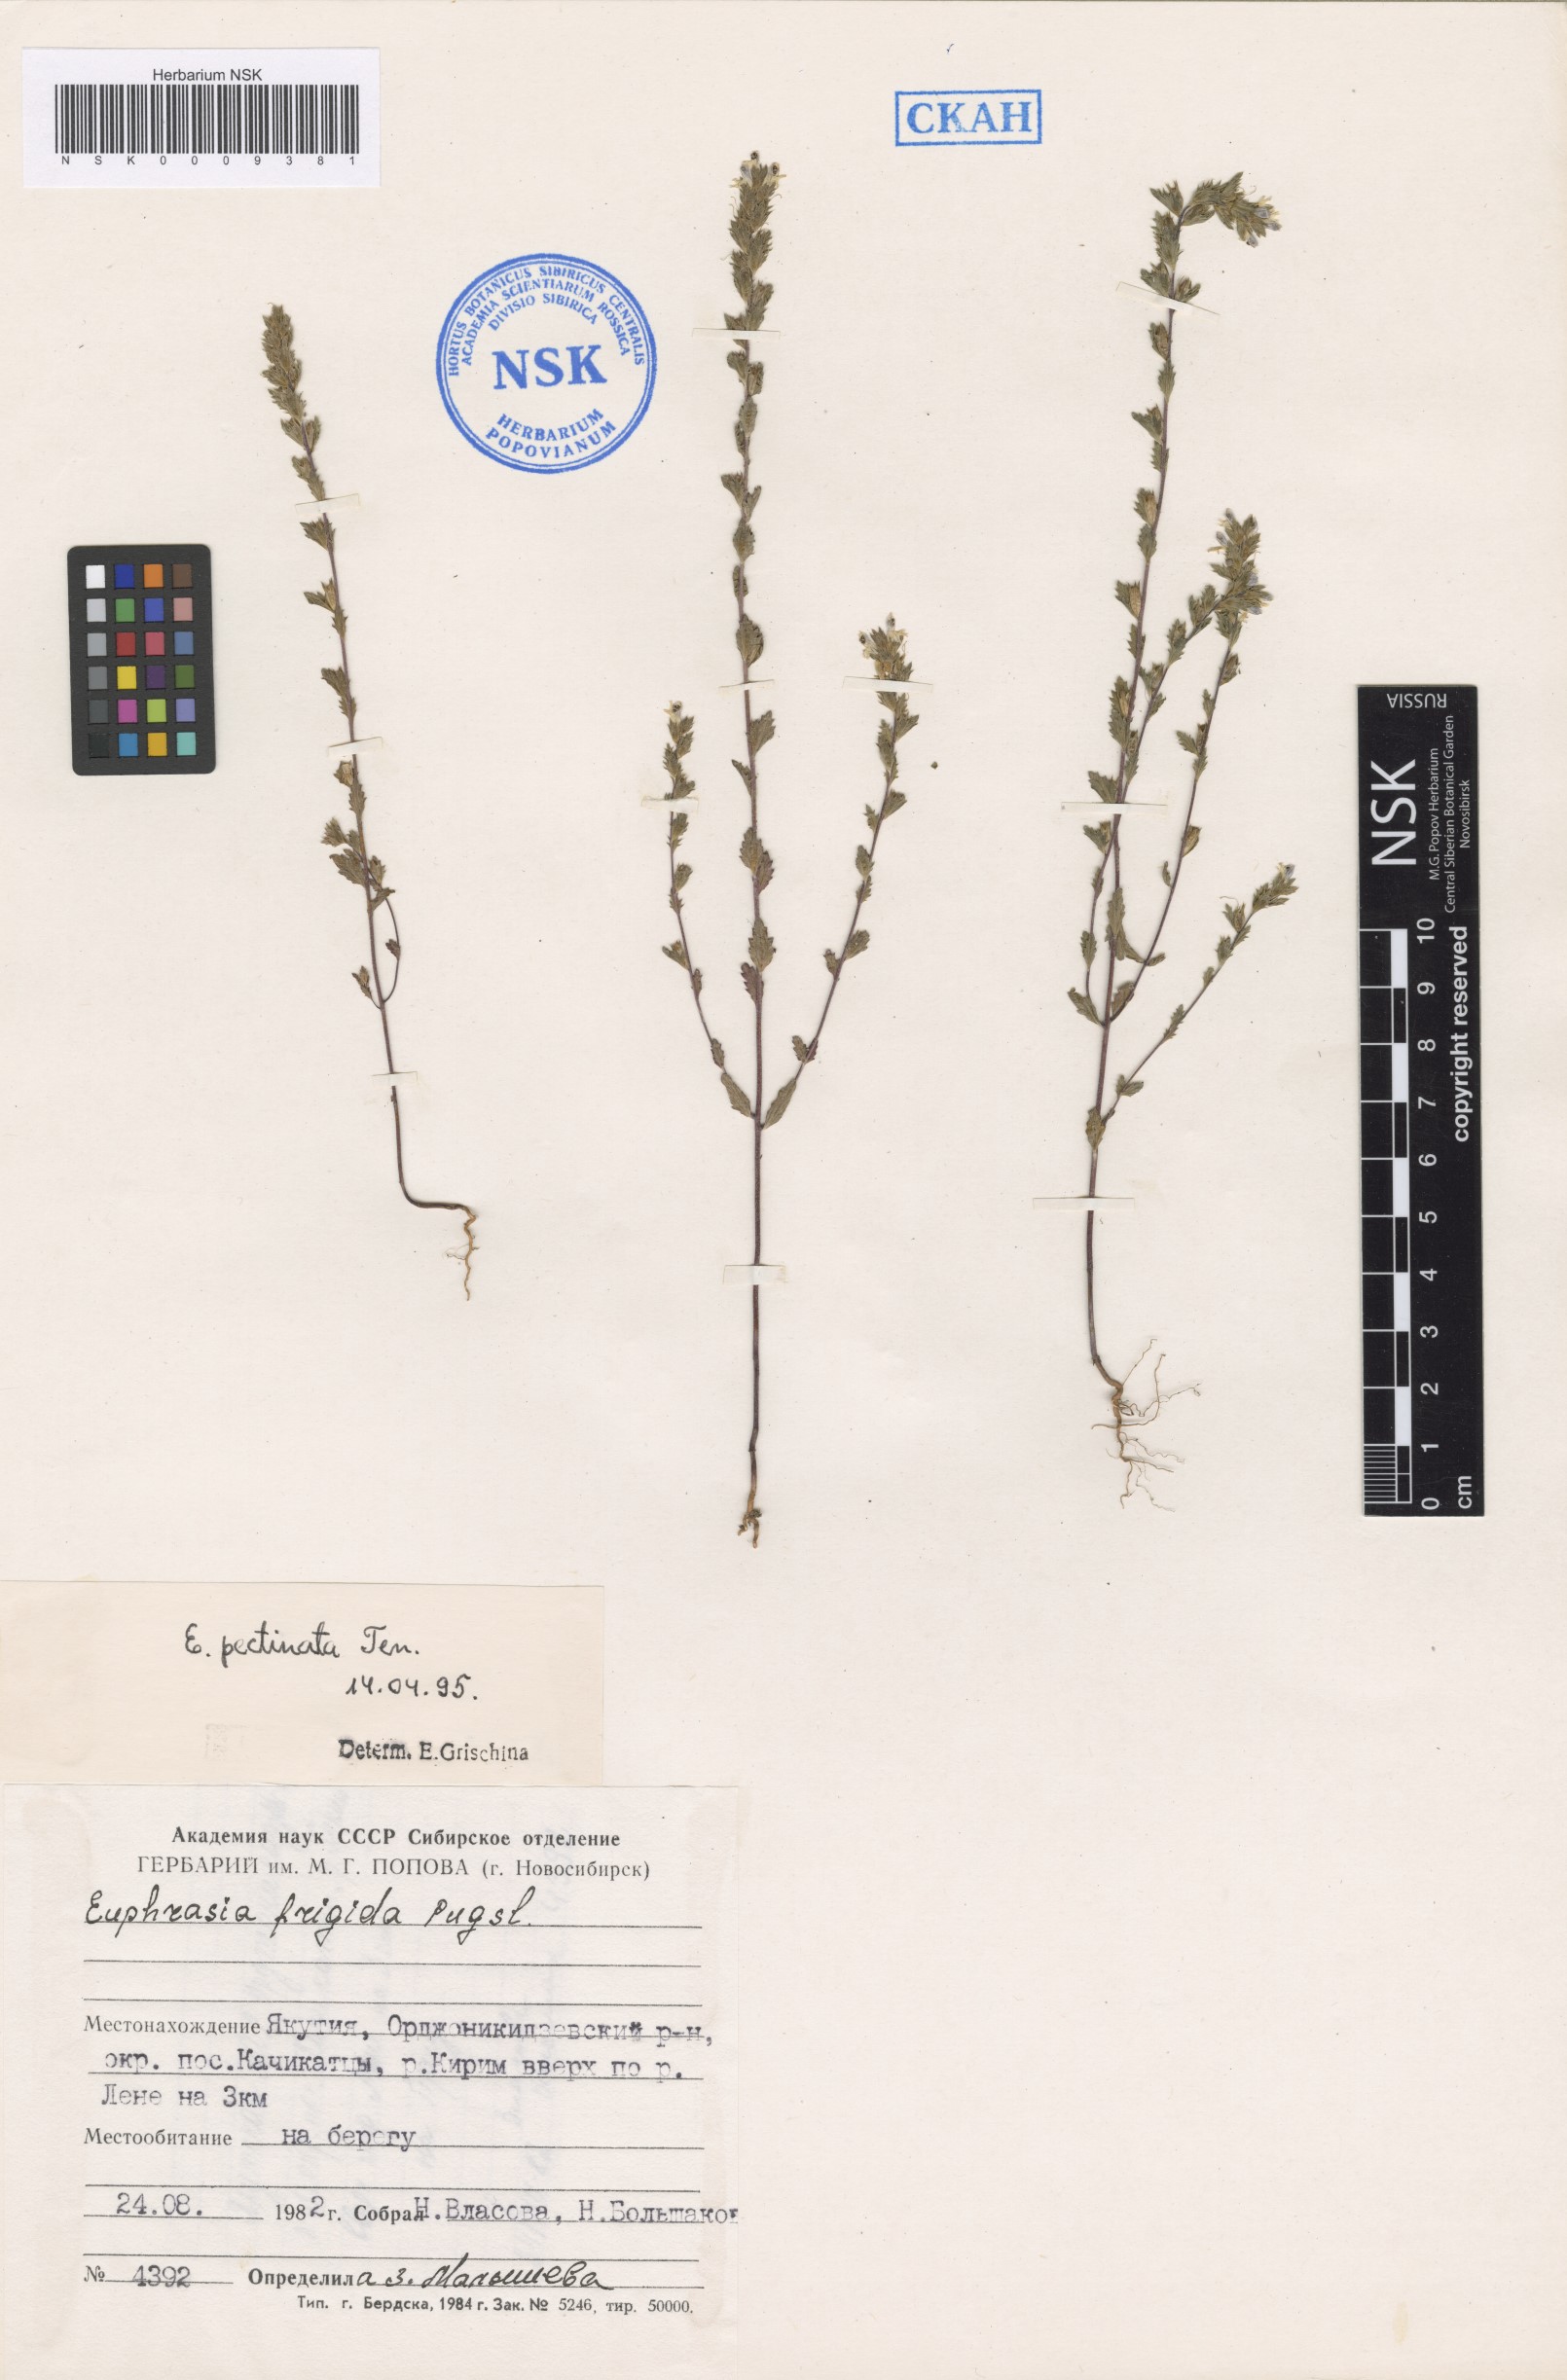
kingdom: Plantae
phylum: Tracheophyta
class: Magnoliopsida
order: Lamiales
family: Orobanchaceae
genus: Euphrasia
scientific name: Euphrasia pectinata
